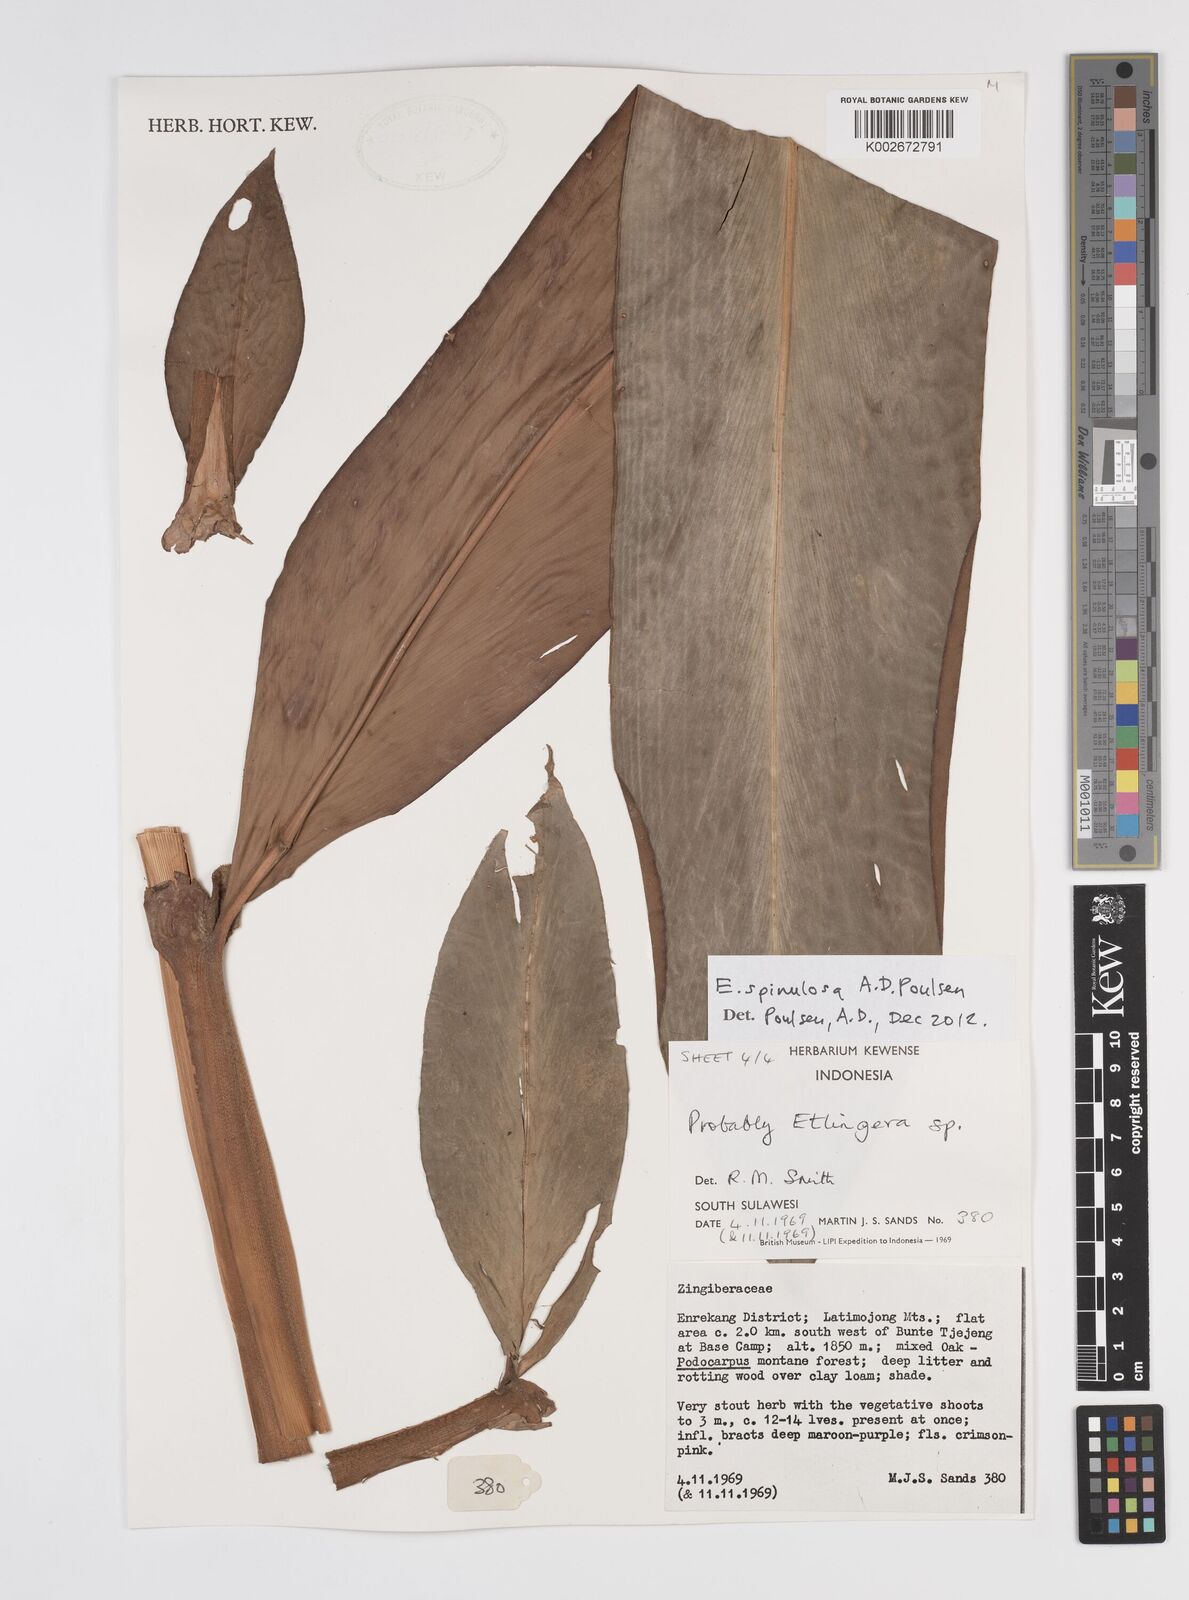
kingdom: Plantae
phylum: Tracheophyta
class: Liliopsida
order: Zingiberales
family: Zingiberaceae
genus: Etlingera
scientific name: Etlingera spinulosa
